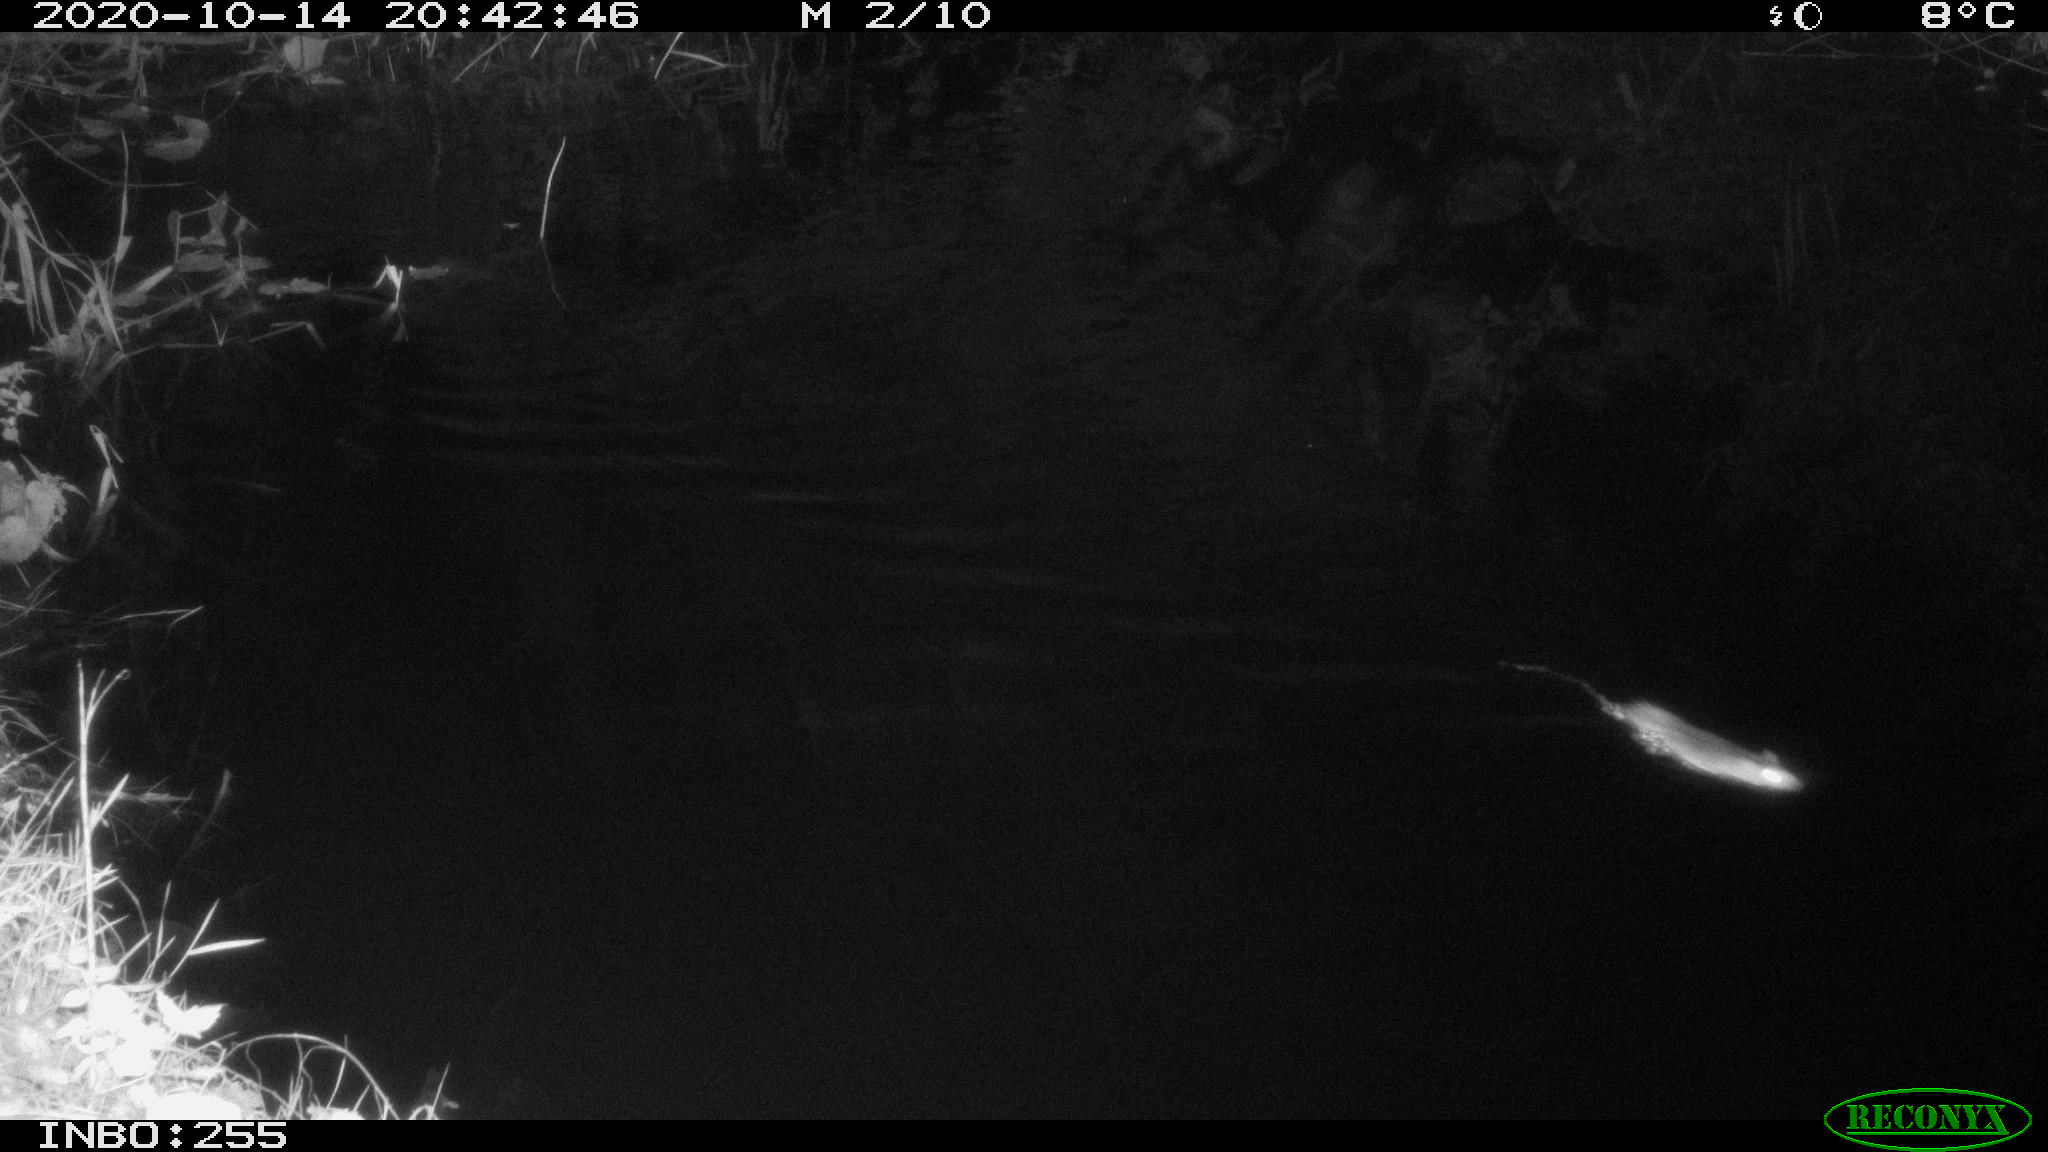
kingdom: Animalia
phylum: Chordata
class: Mammalia
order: Rodentia
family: Muridae
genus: Rattus
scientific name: Rattus norvegicus
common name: Brown rat
